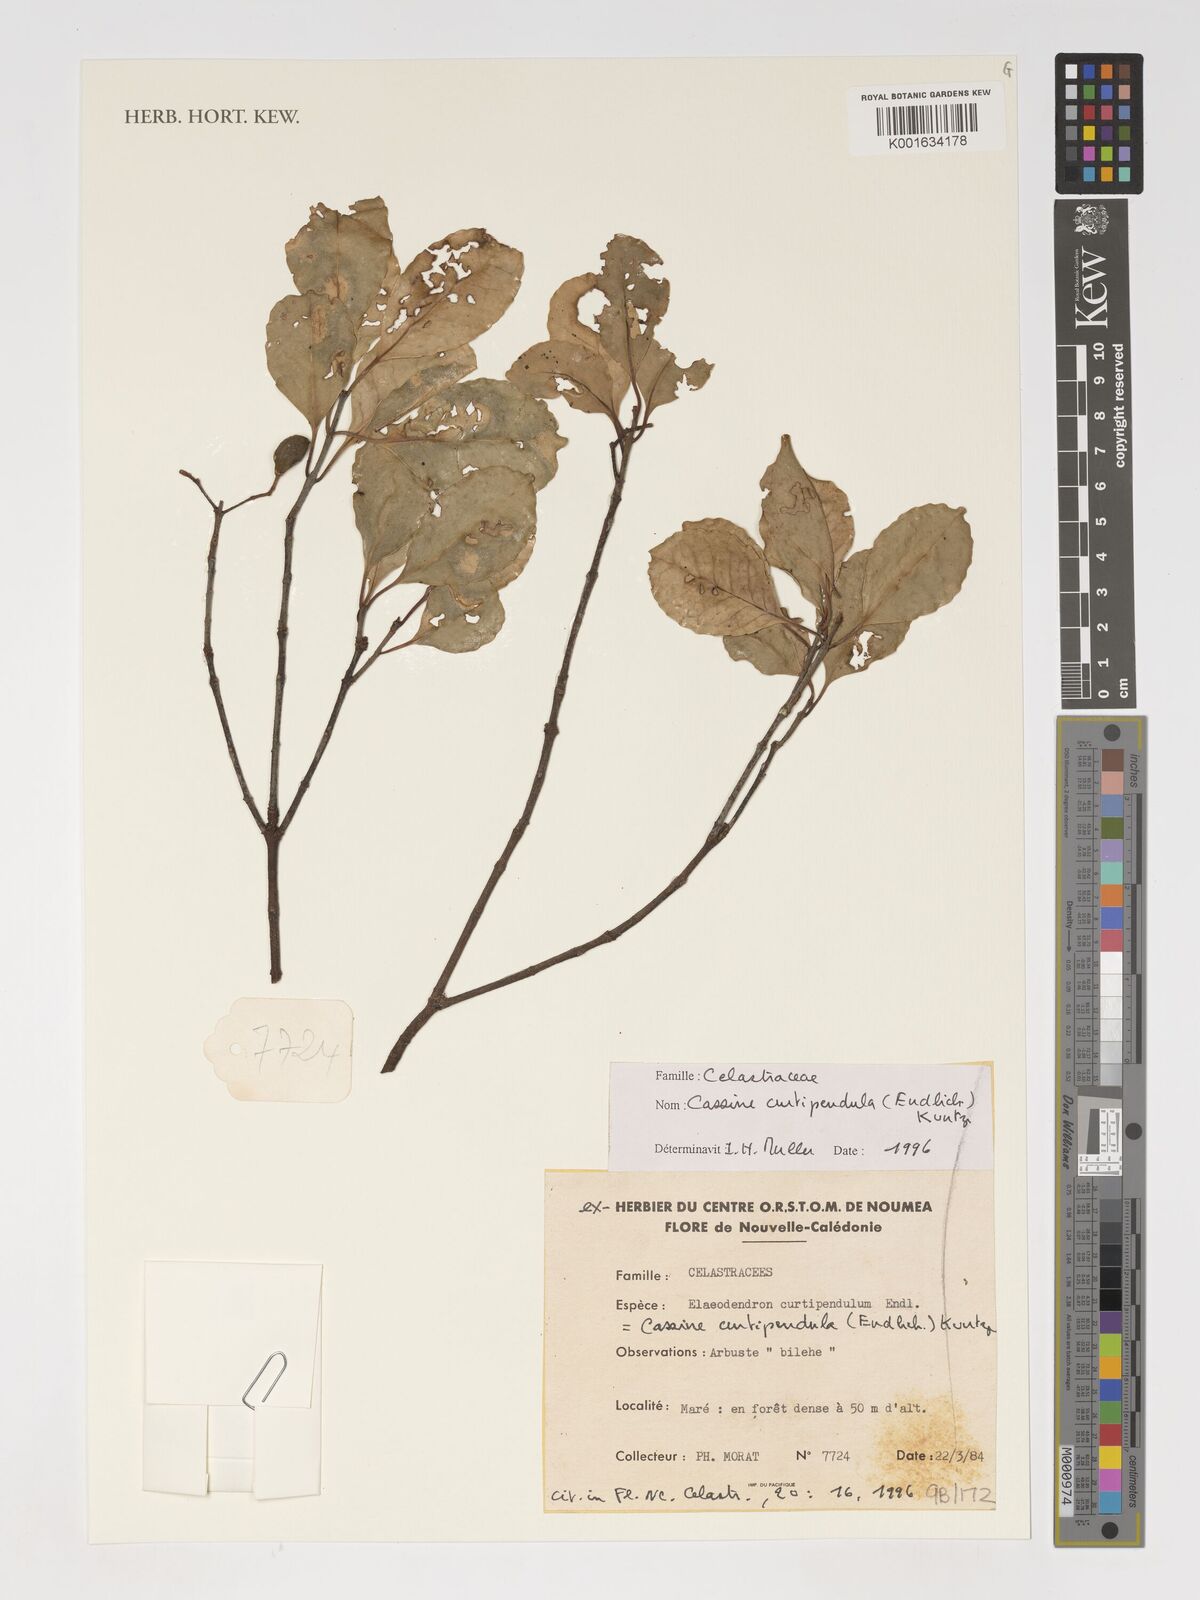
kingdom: Plantae
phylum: Tracheophyta
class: Magnoliopsida
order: Celastrales
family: Celastraceae
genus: Elaeodendron
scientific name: Elaeodendron curtipendulum
